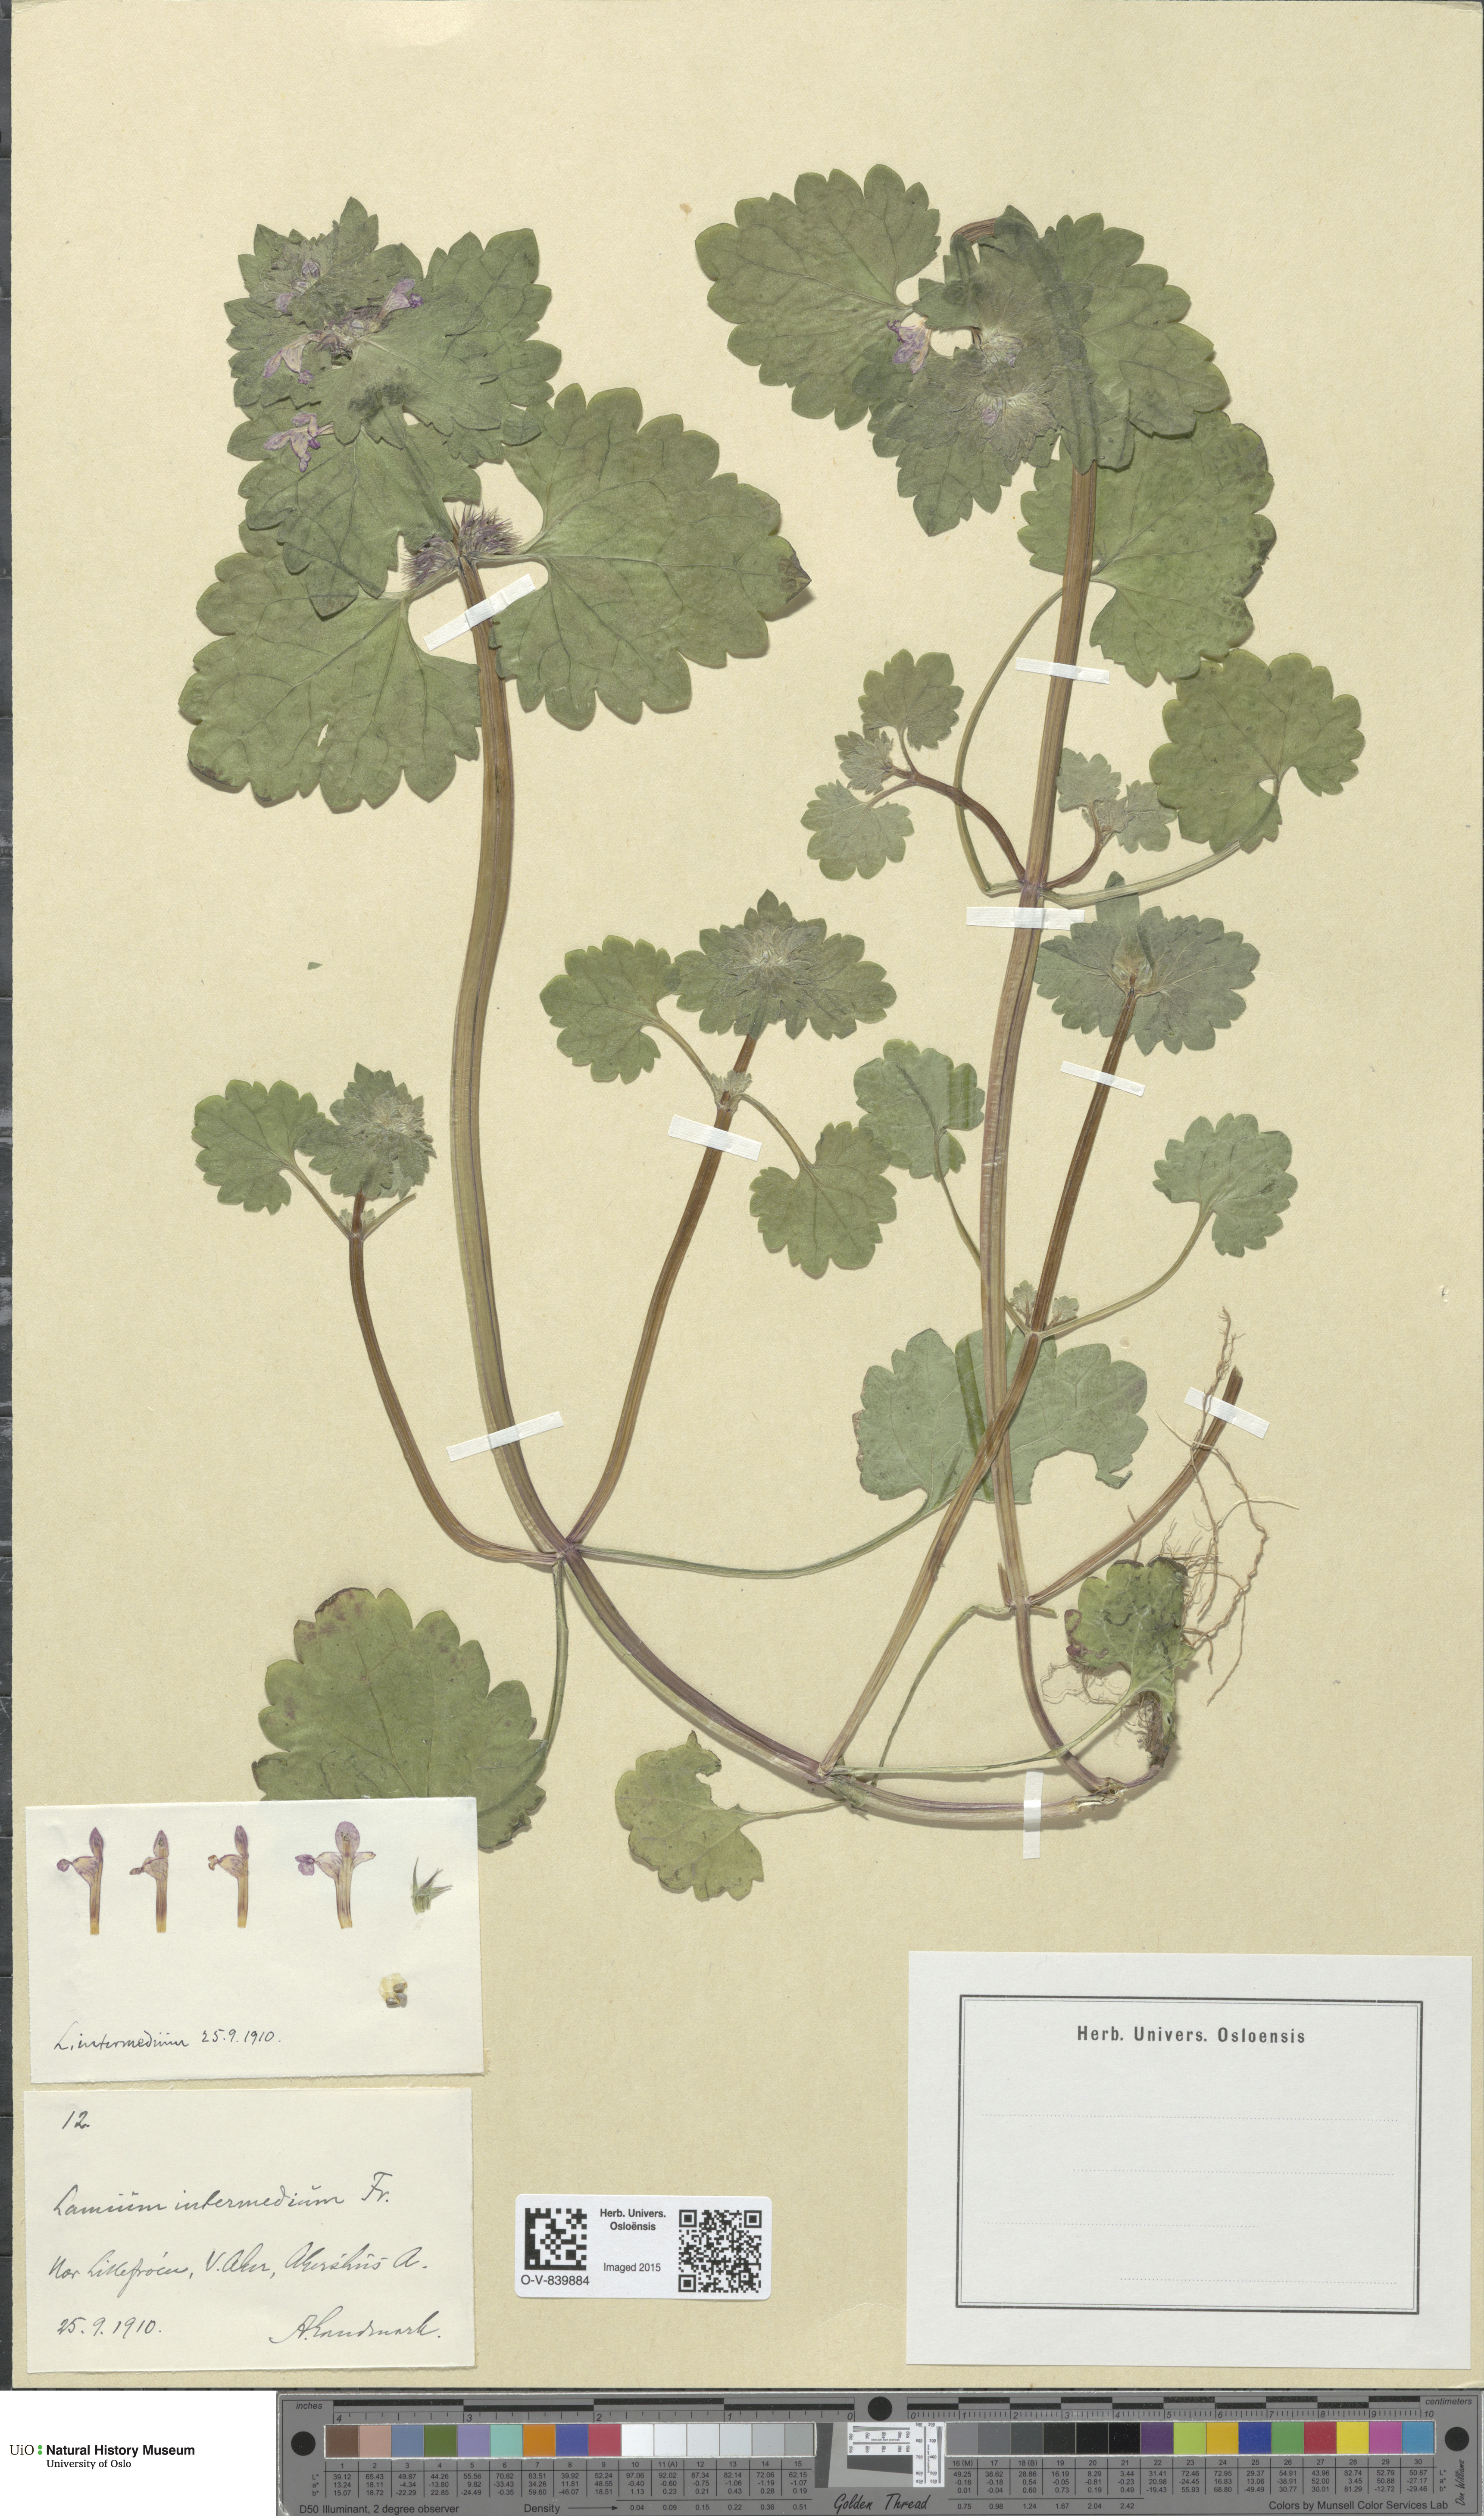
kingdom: Plantae
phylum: Tracheophyta
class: Magnoliopsida
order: Lamiales
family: Lamiaceae
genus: Lamium
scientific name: Lamium confertum
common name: Northern dead-nettle
